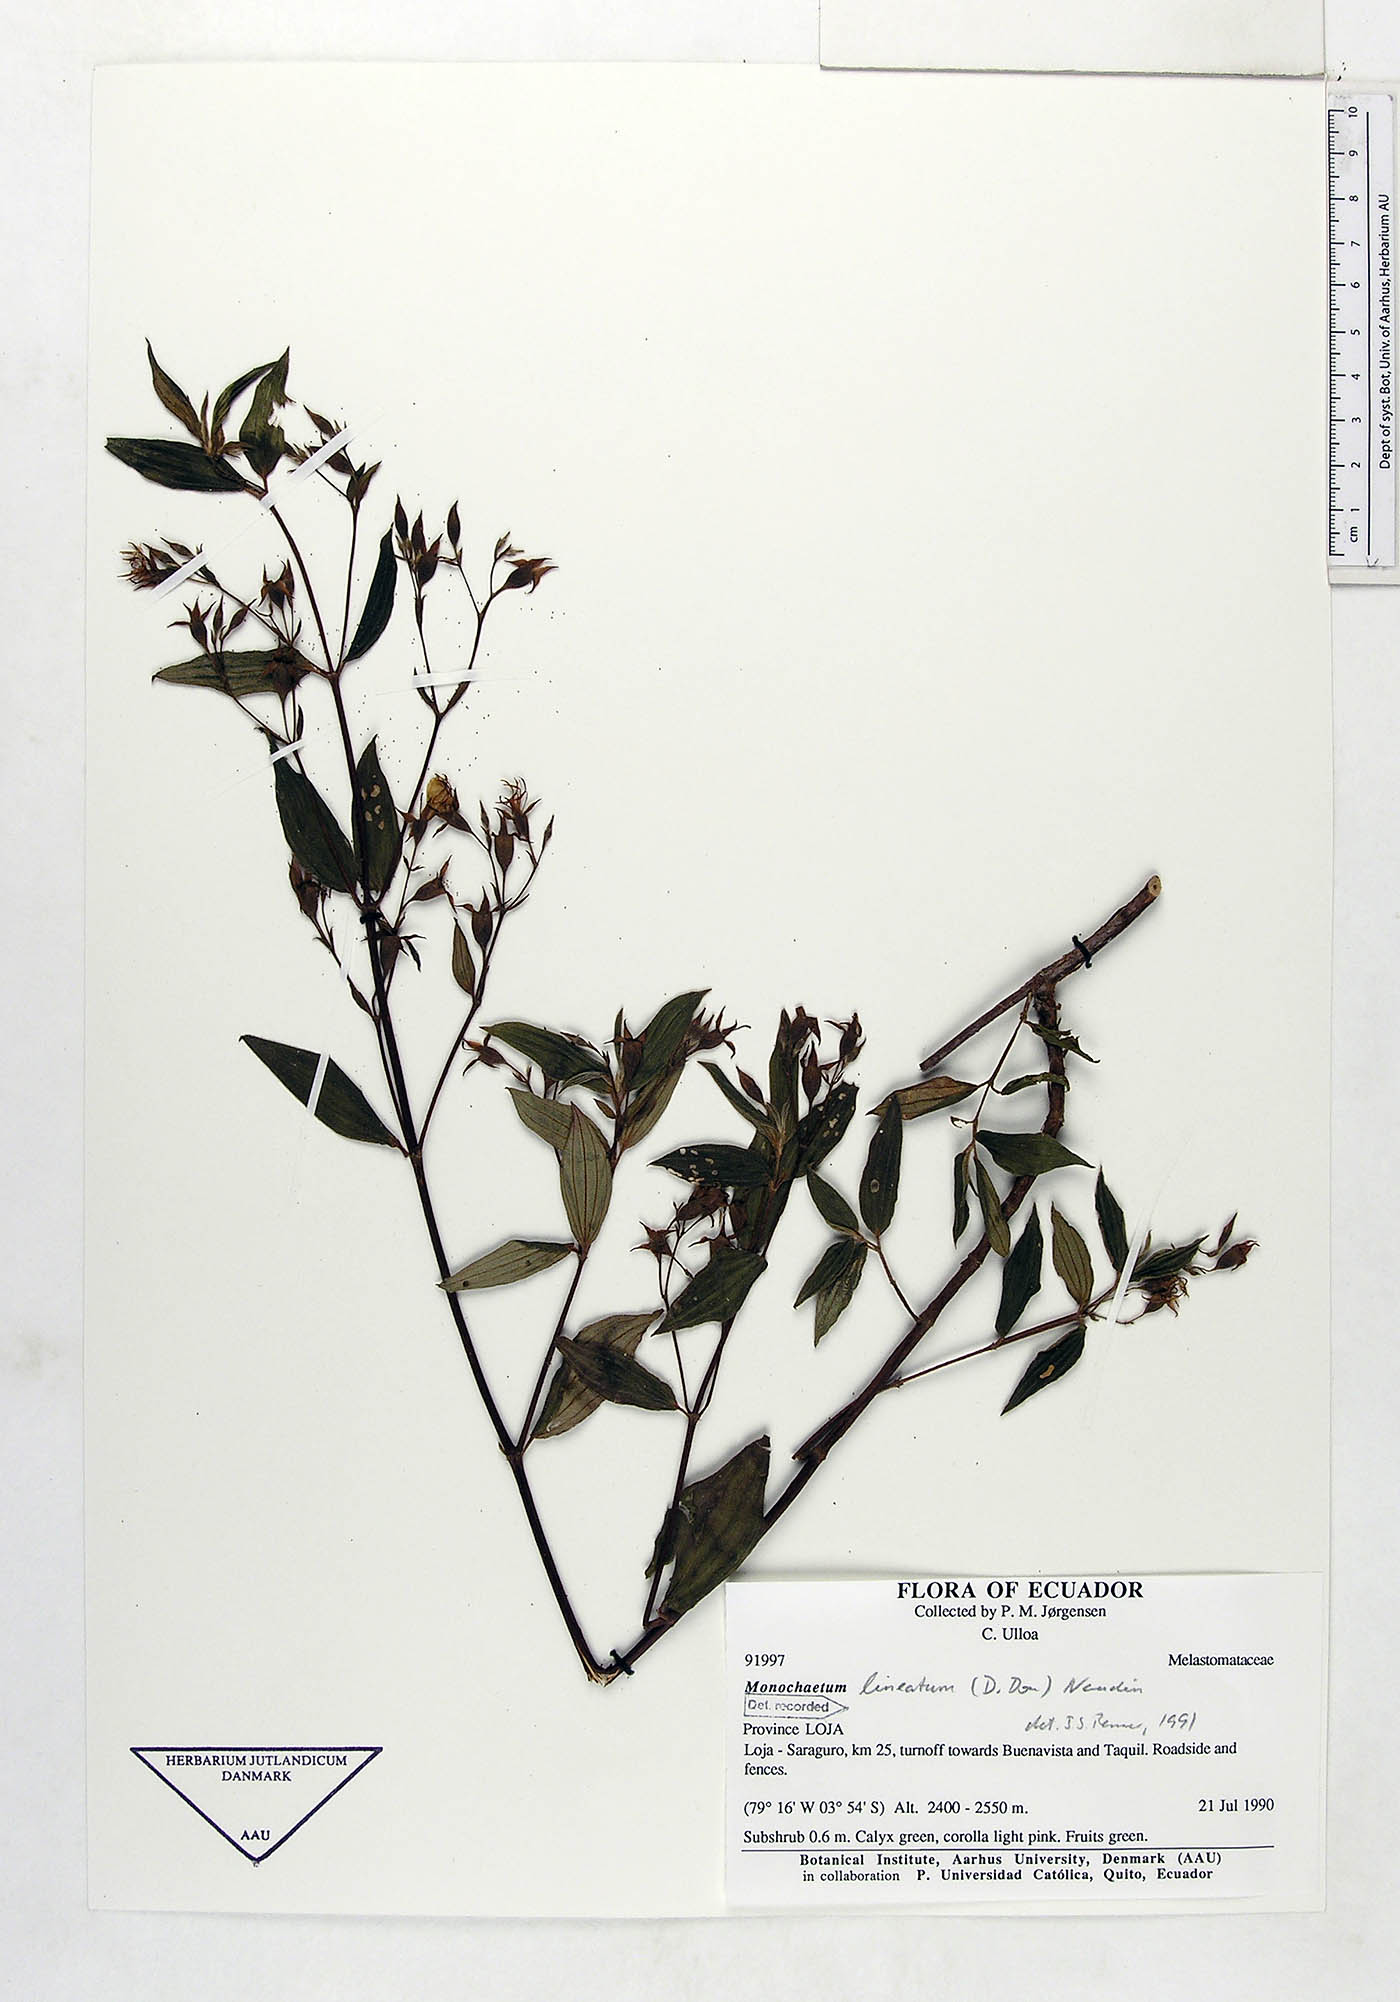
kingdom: Plantae
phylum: Tracheophyta
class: Magnoliopsida
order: Myrtales
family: Melastomataceae
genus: Monochaetum
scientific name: Monochaetum lineatum
